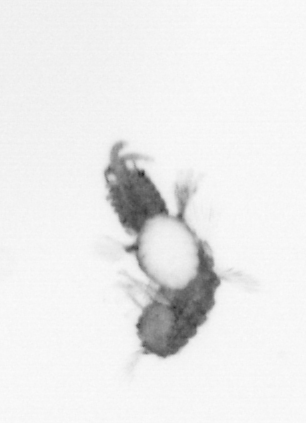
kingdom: Animalia
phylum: Annelida
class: Polychaeta
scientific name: Polychaeta
